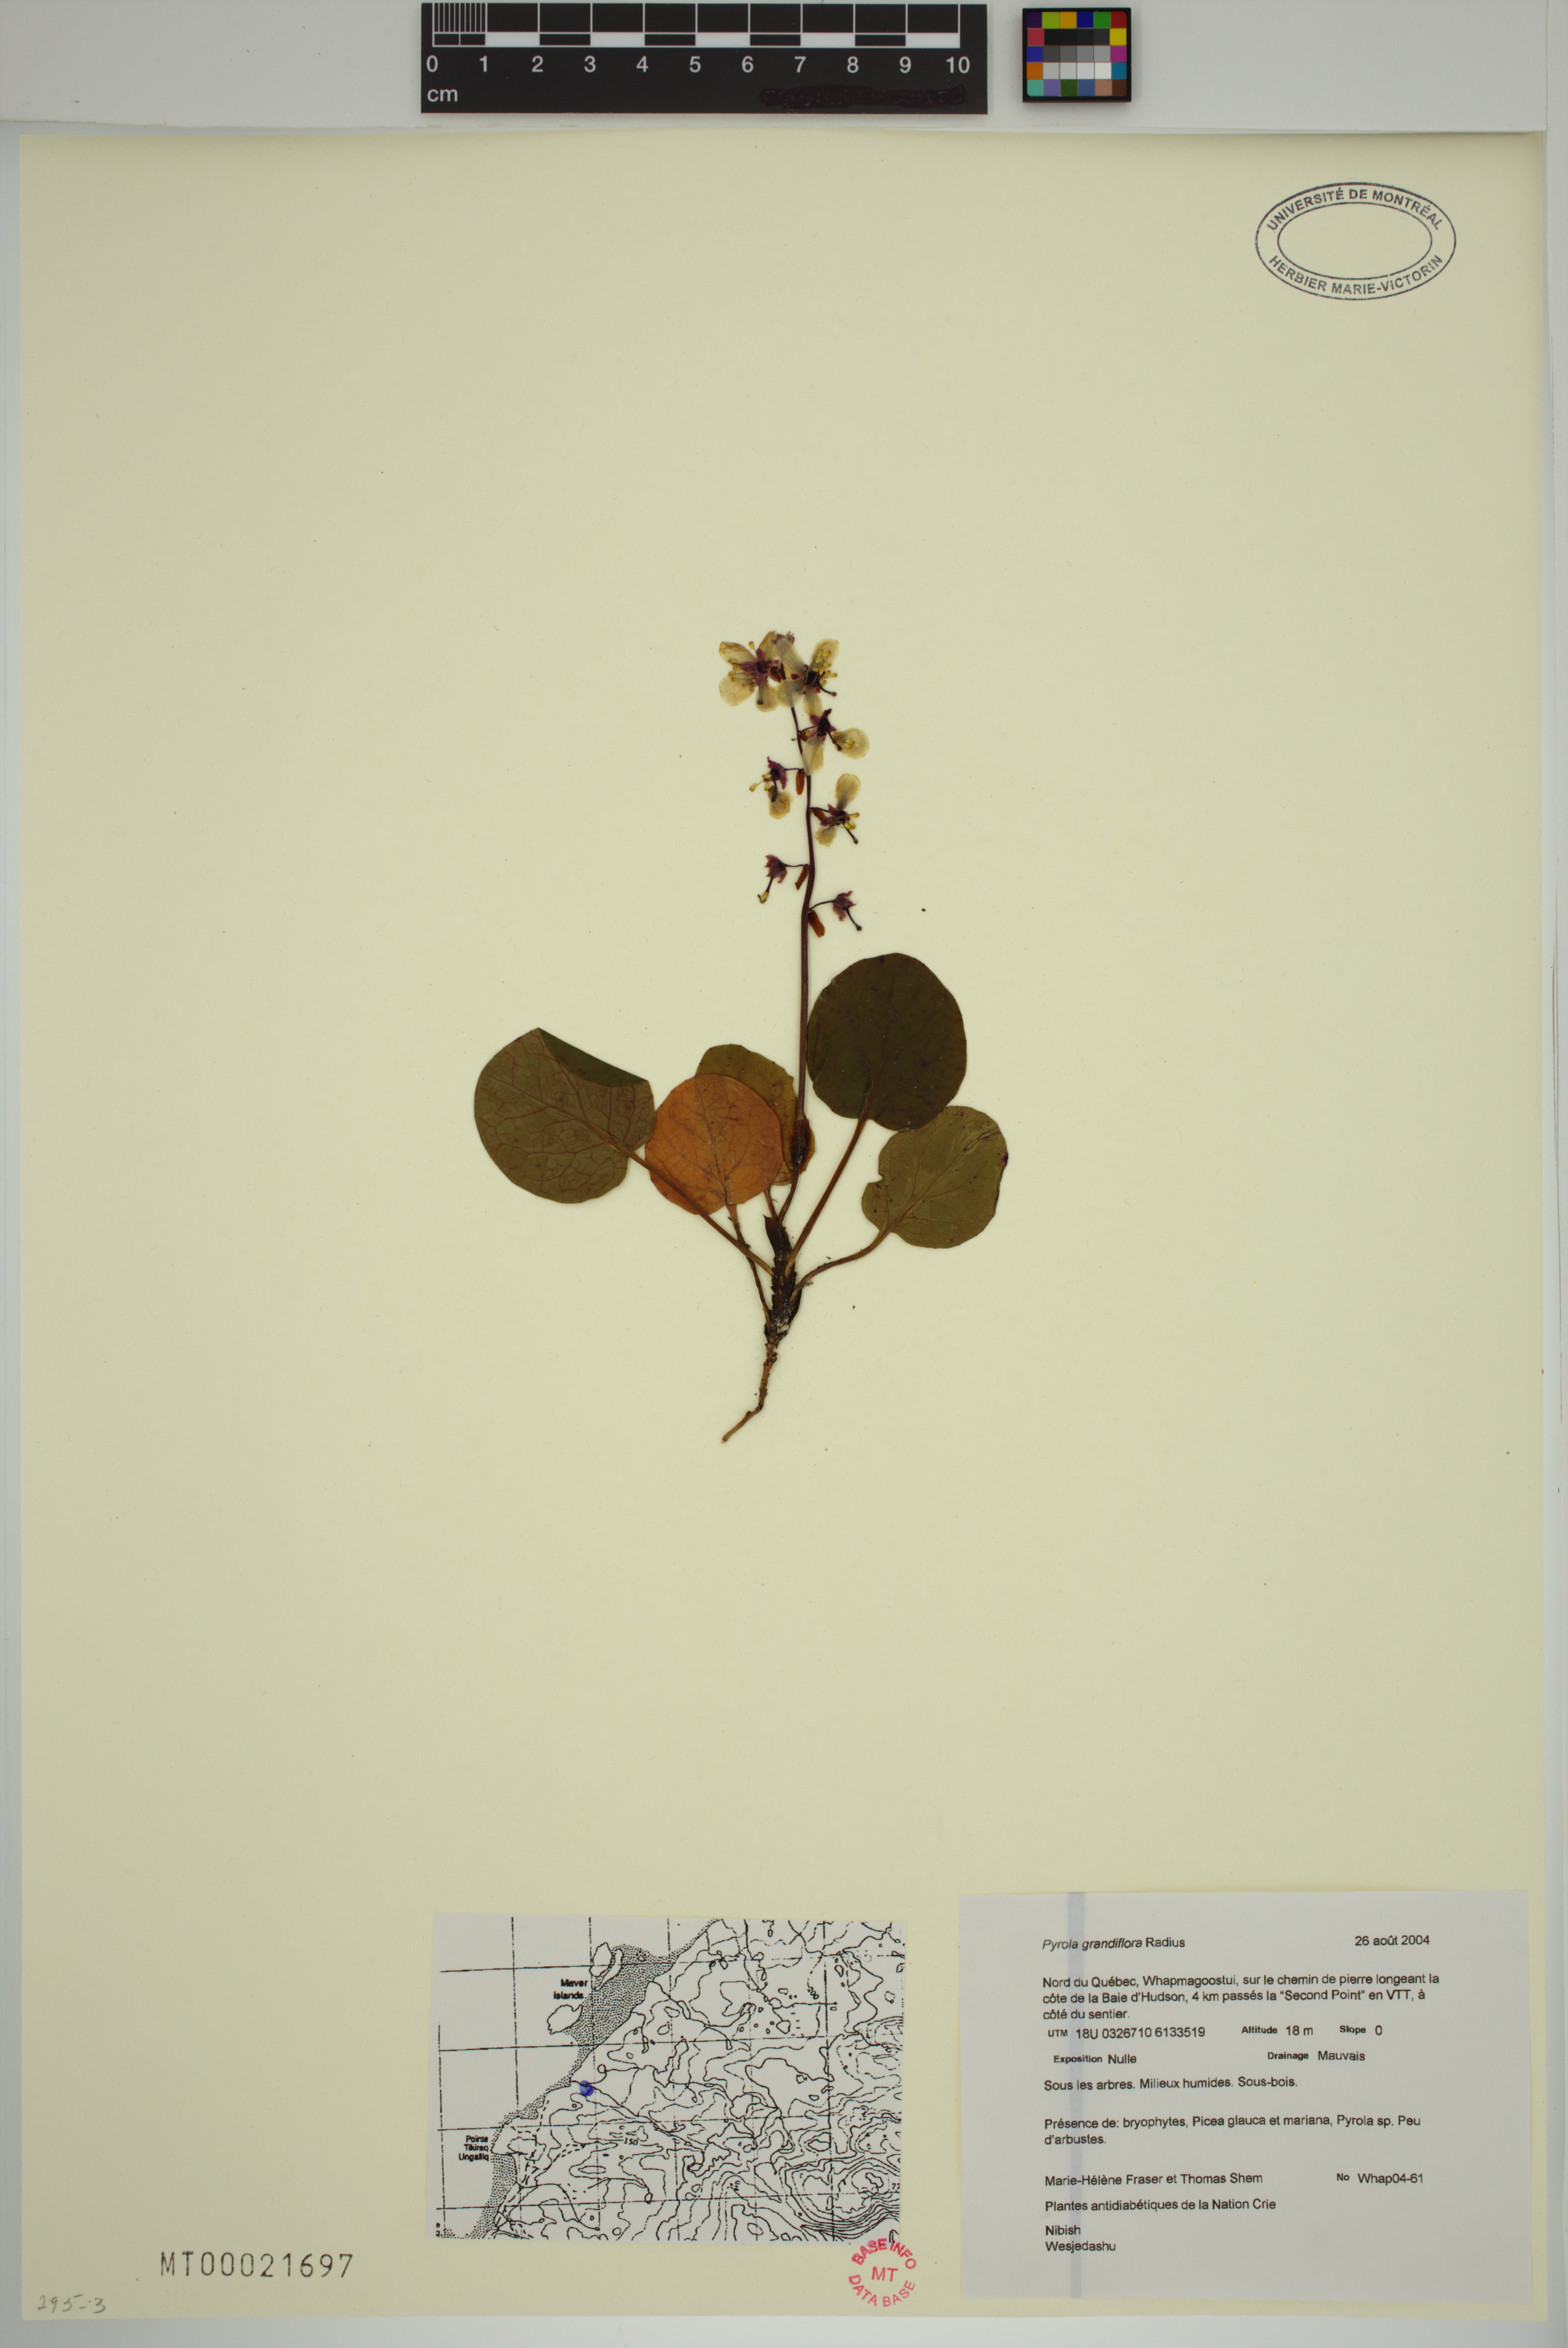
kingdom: Plantae
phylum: Tracheophyta
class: Magnoliopsida
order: Ericales
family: Ericaceae
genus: Pyrola
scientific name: Pyrola grandiflora
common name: Arctic pyrola
